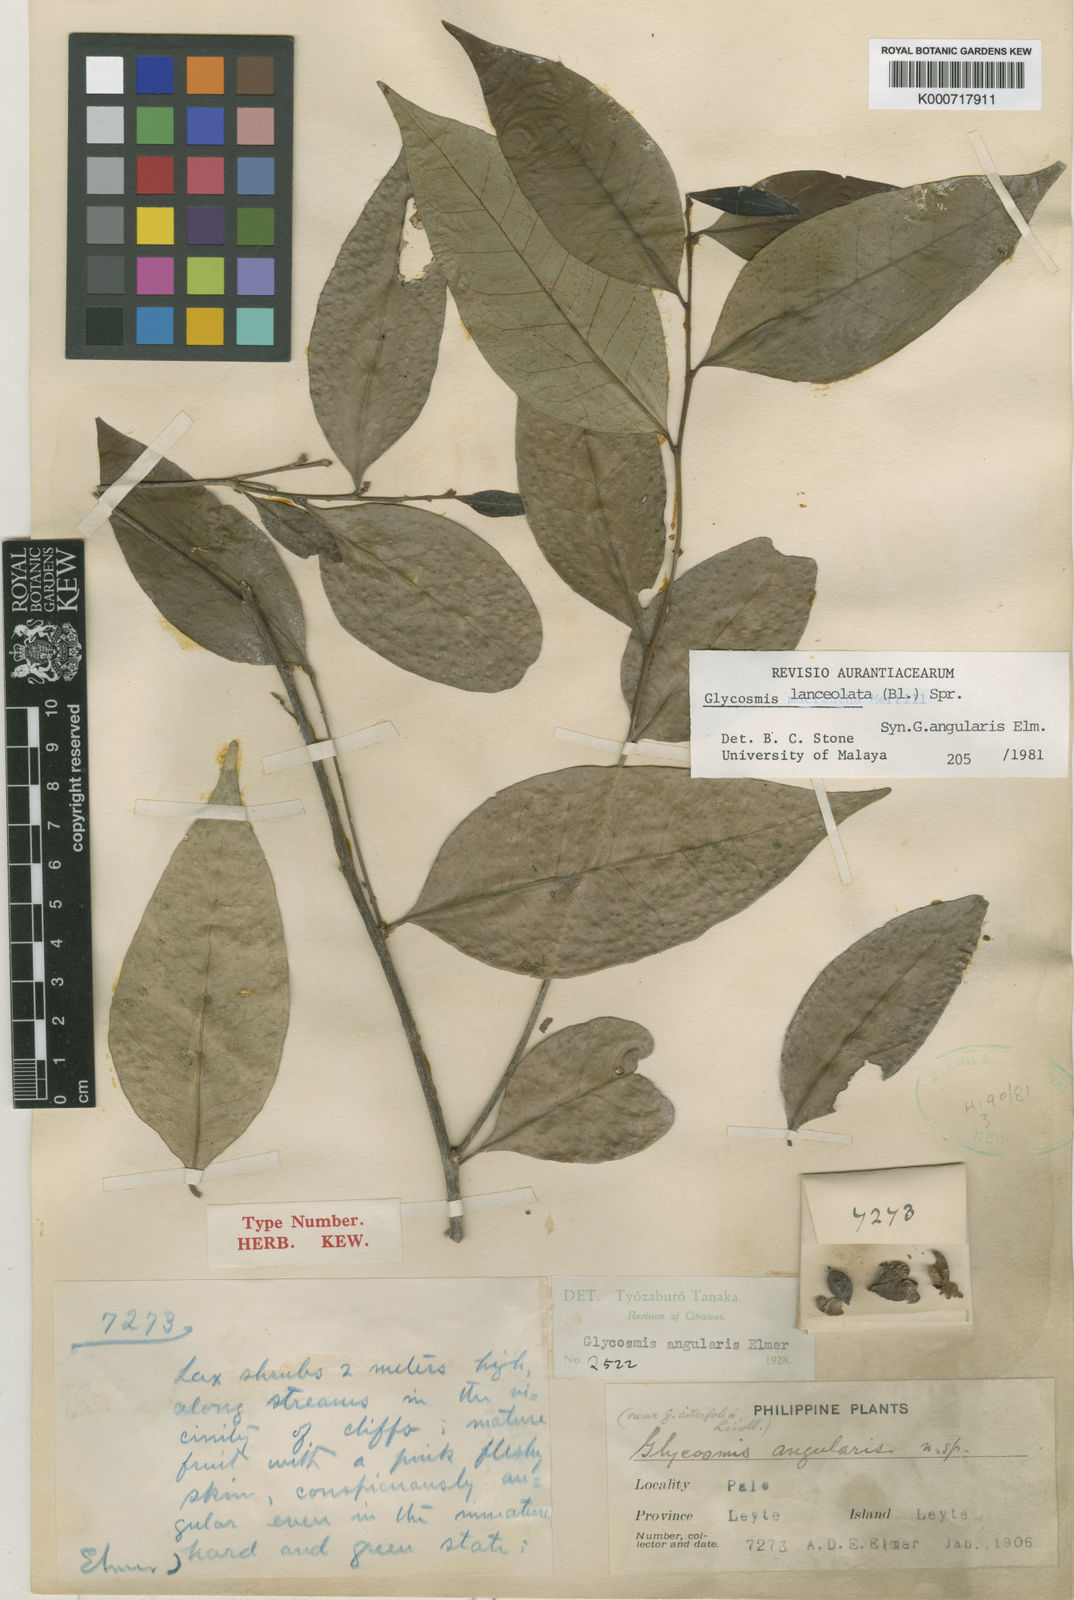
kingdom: Plantae
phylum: Tracheophyta
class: Magnoliopsida
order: Sapindales
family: Rutaceae
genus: Glycosmis
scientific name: Glycosmis
